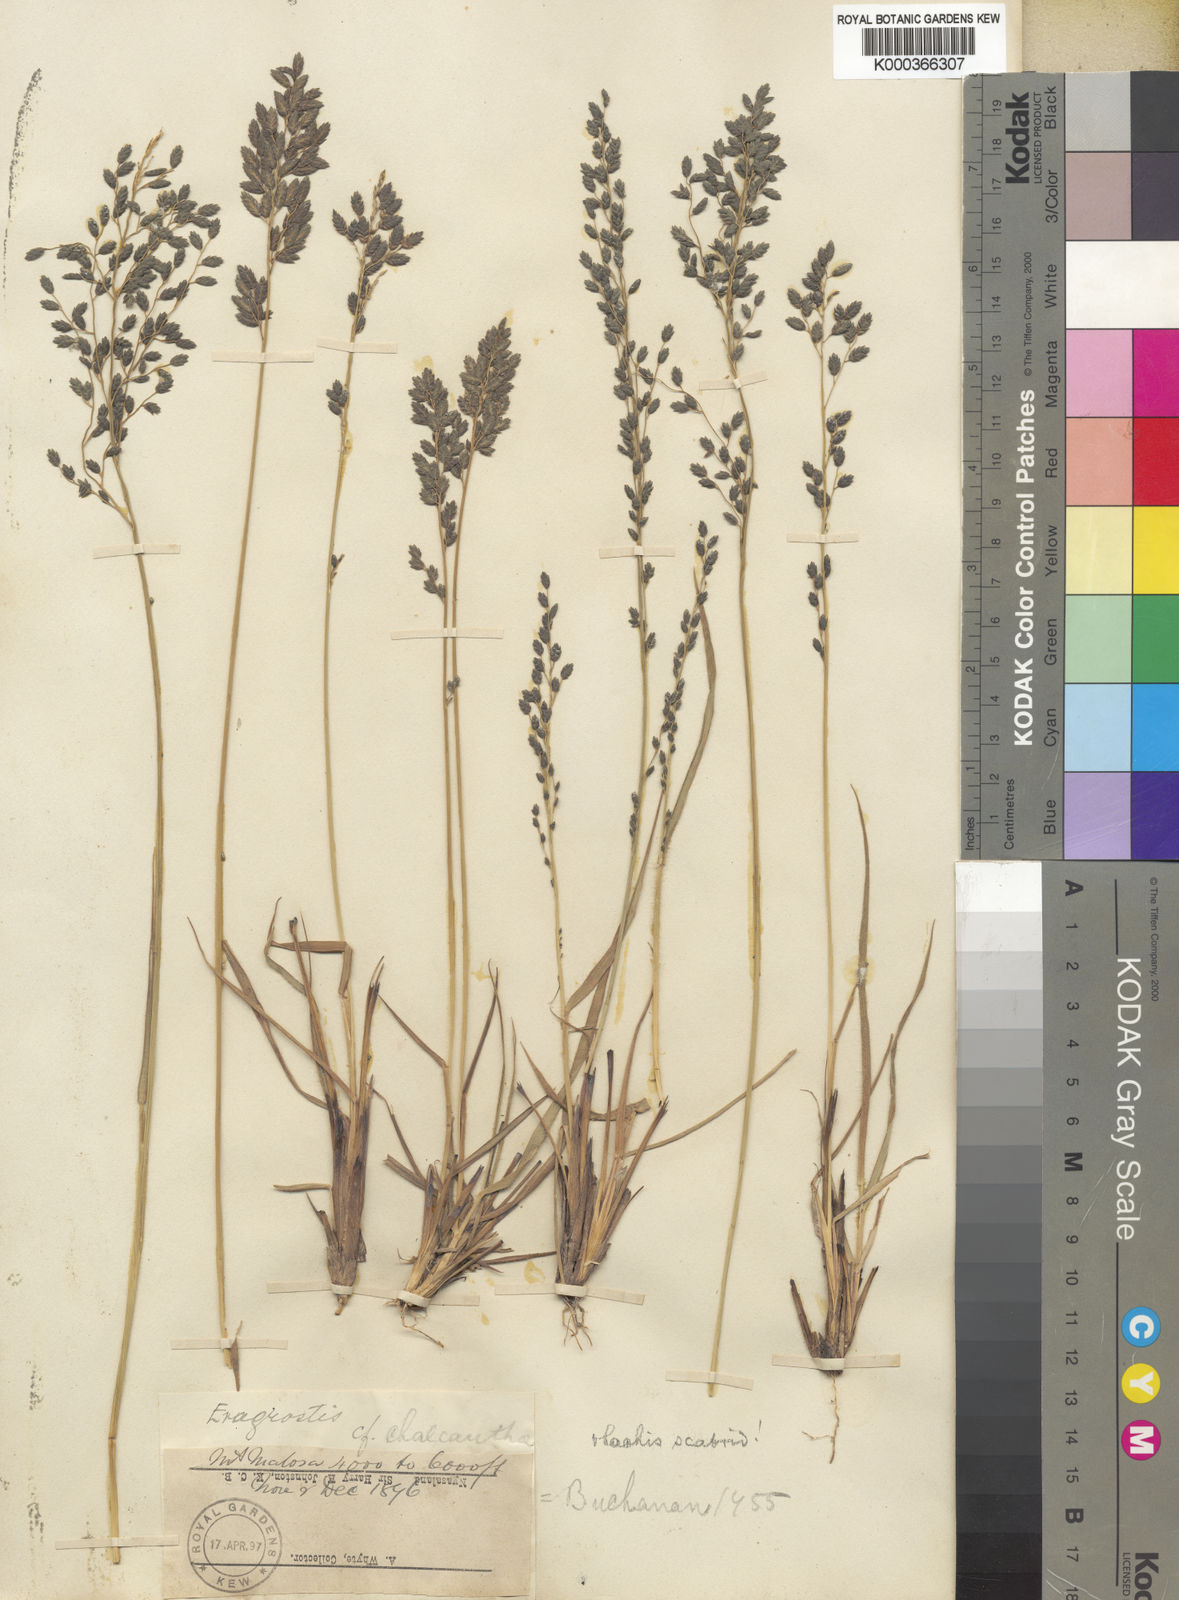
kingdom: Plantae
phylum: Tracheophyta
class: Liliopsida
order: Poales
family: Poaceae
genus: Eragrostis
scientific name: Eragrostis racemosa
